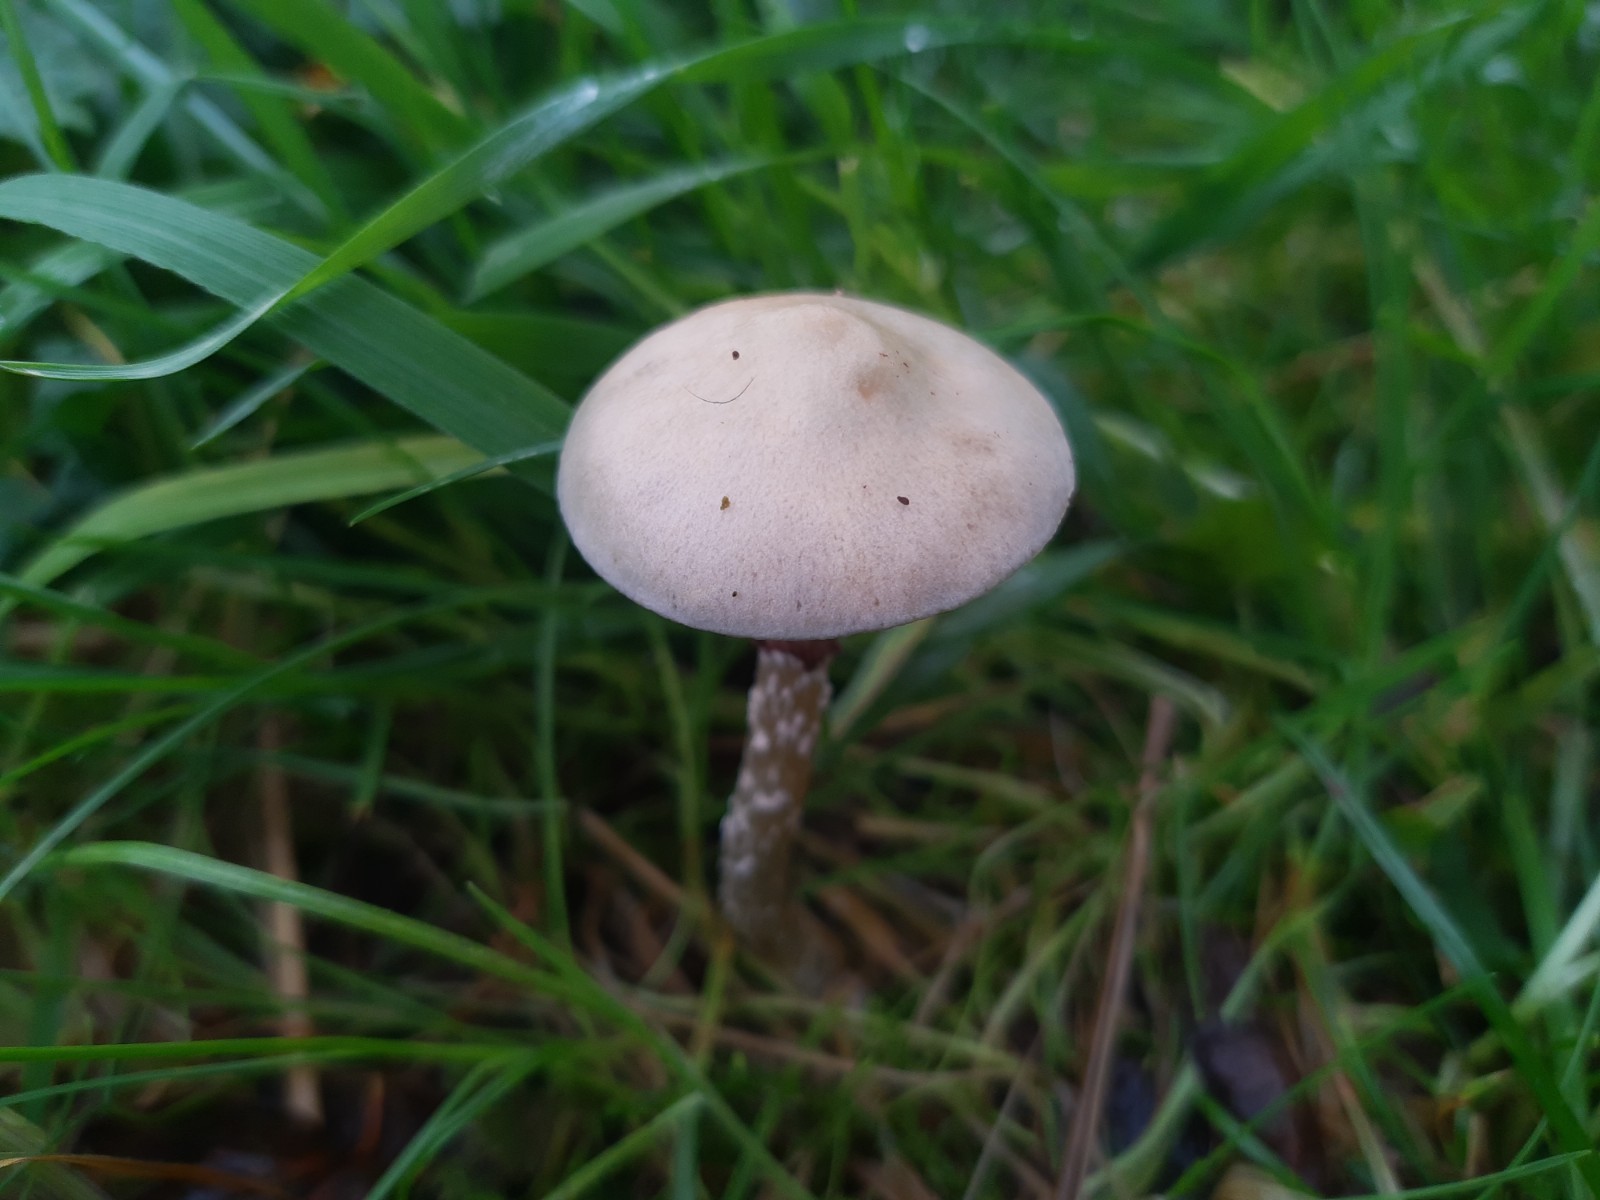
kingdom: Fungi
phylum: Basidiomycota
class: Agaricomycetes
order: Agaricales
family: Strophariaceae
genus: Stropharia
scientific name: Stropharia
